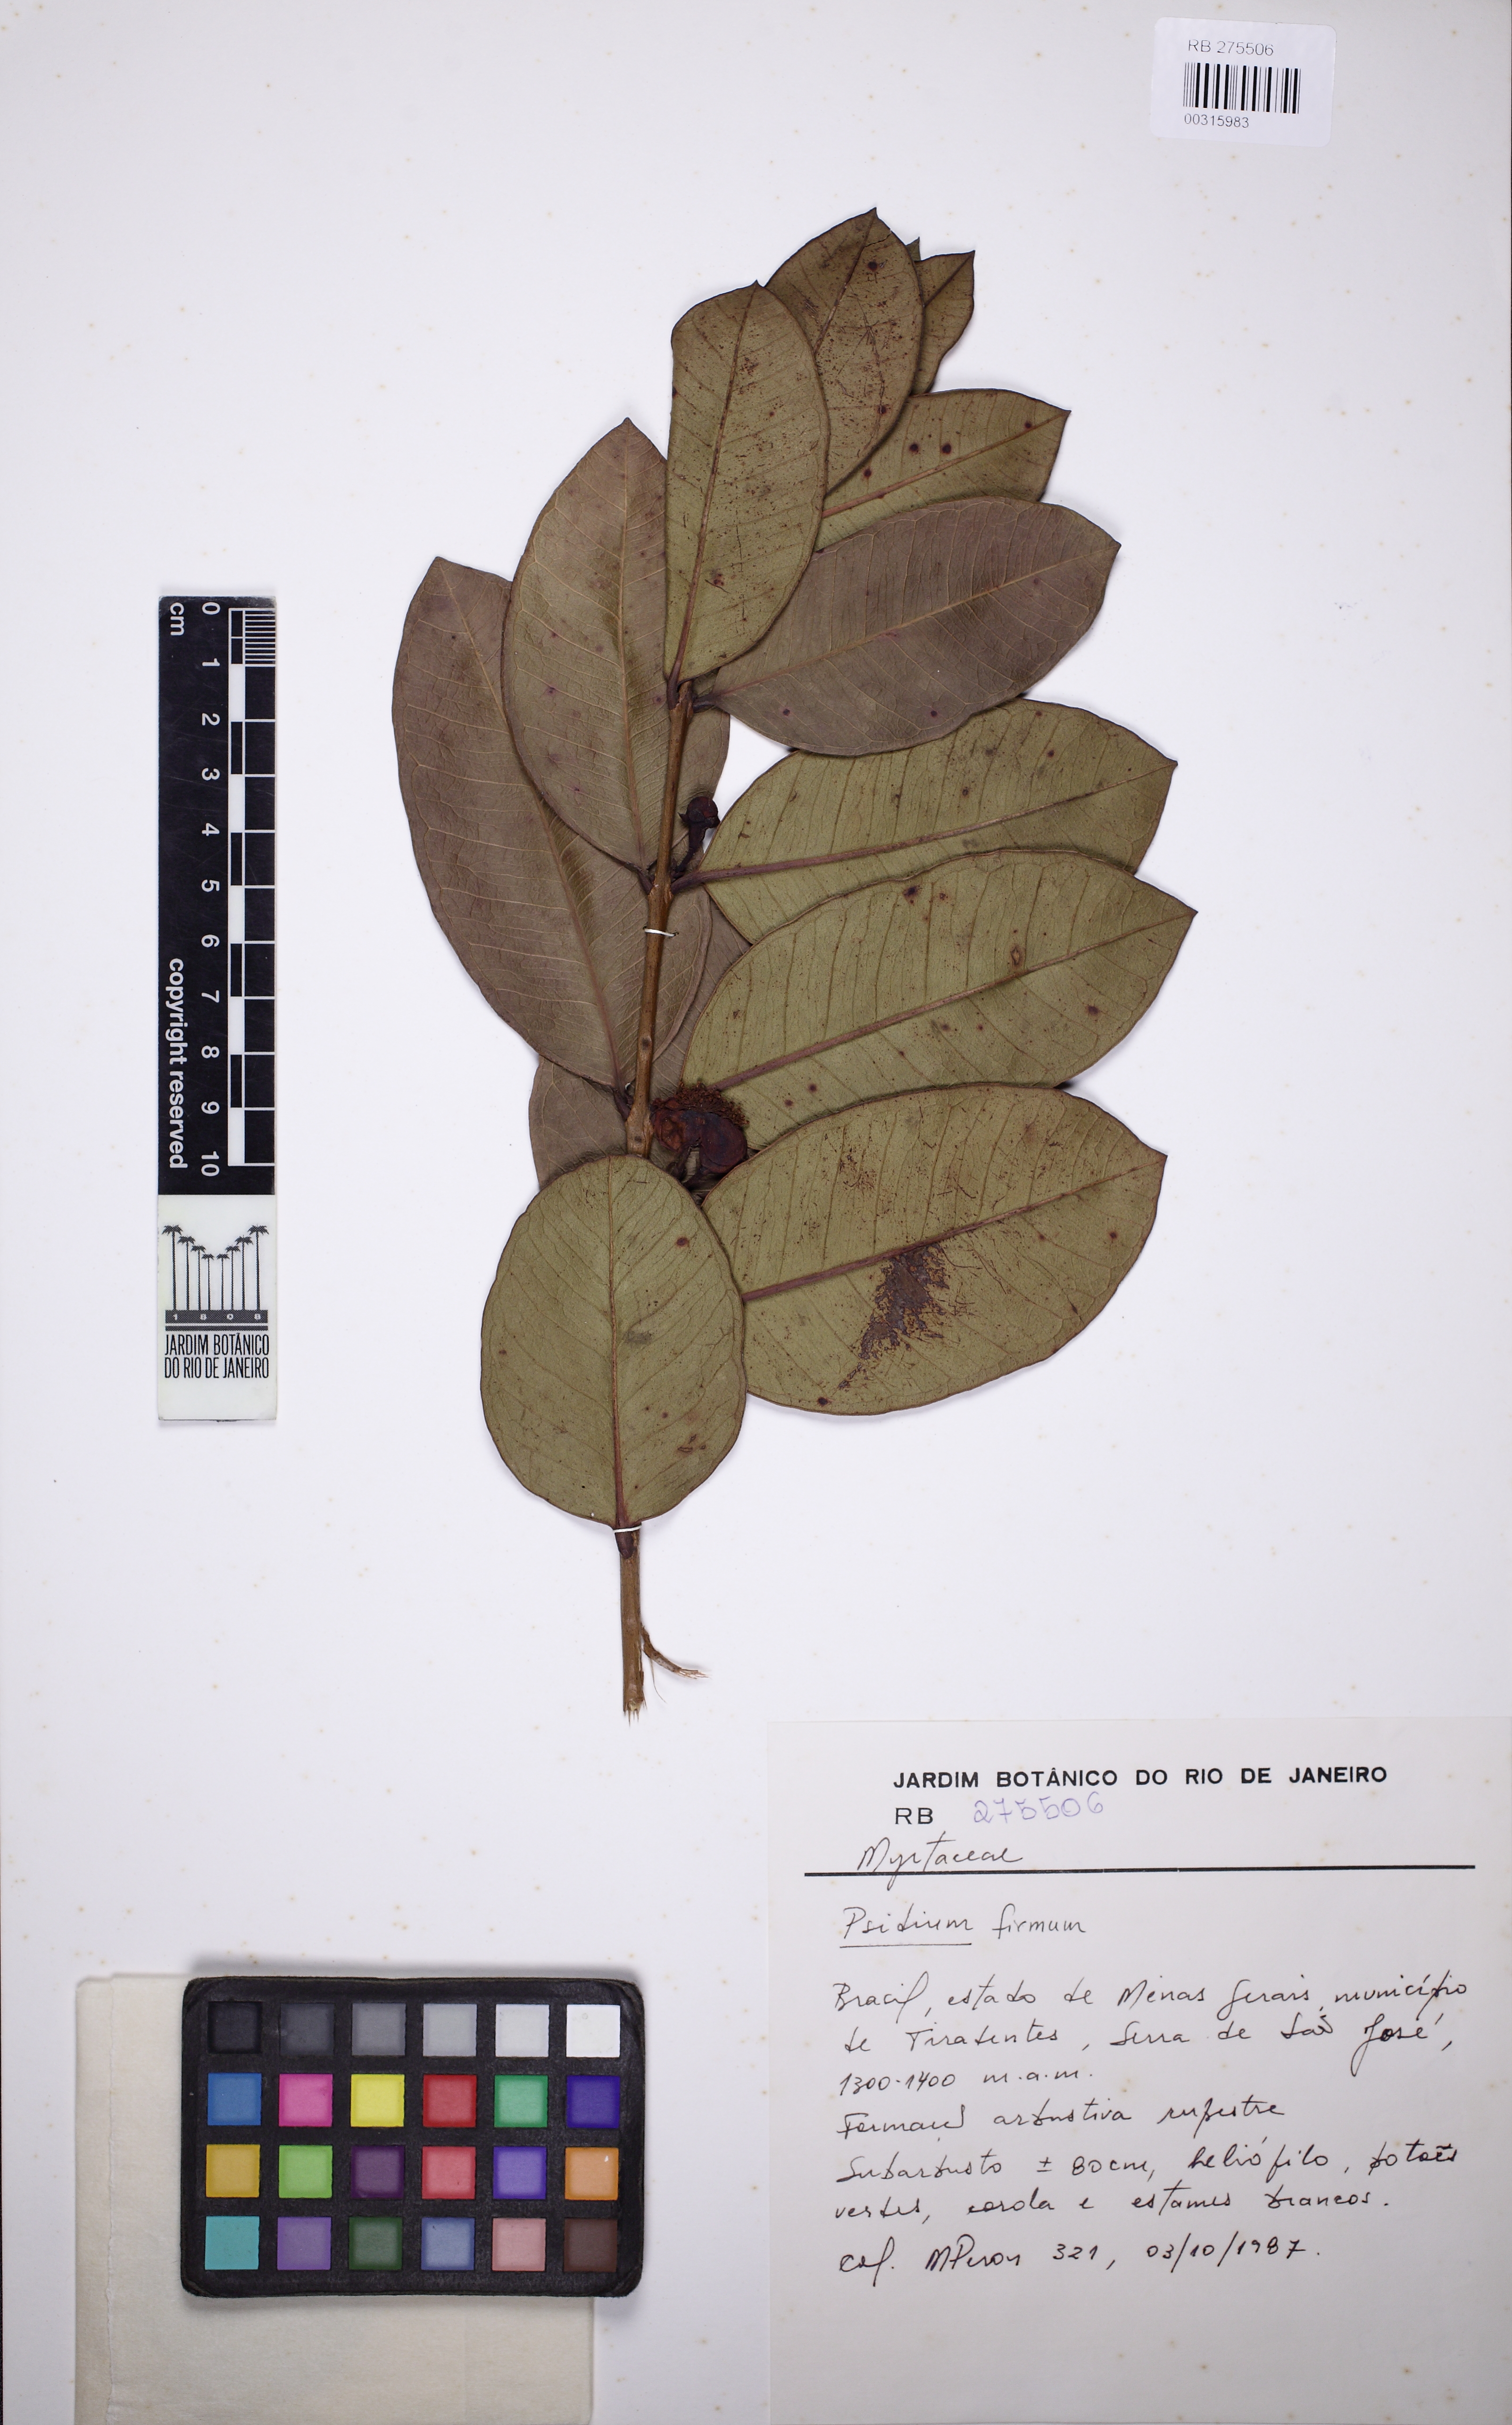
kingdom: Plantae
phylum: Tracheophyta
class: Magnoliopsida
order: Myrtales
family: Myrtaceae
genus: Psidium
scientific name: Psidium firmum
